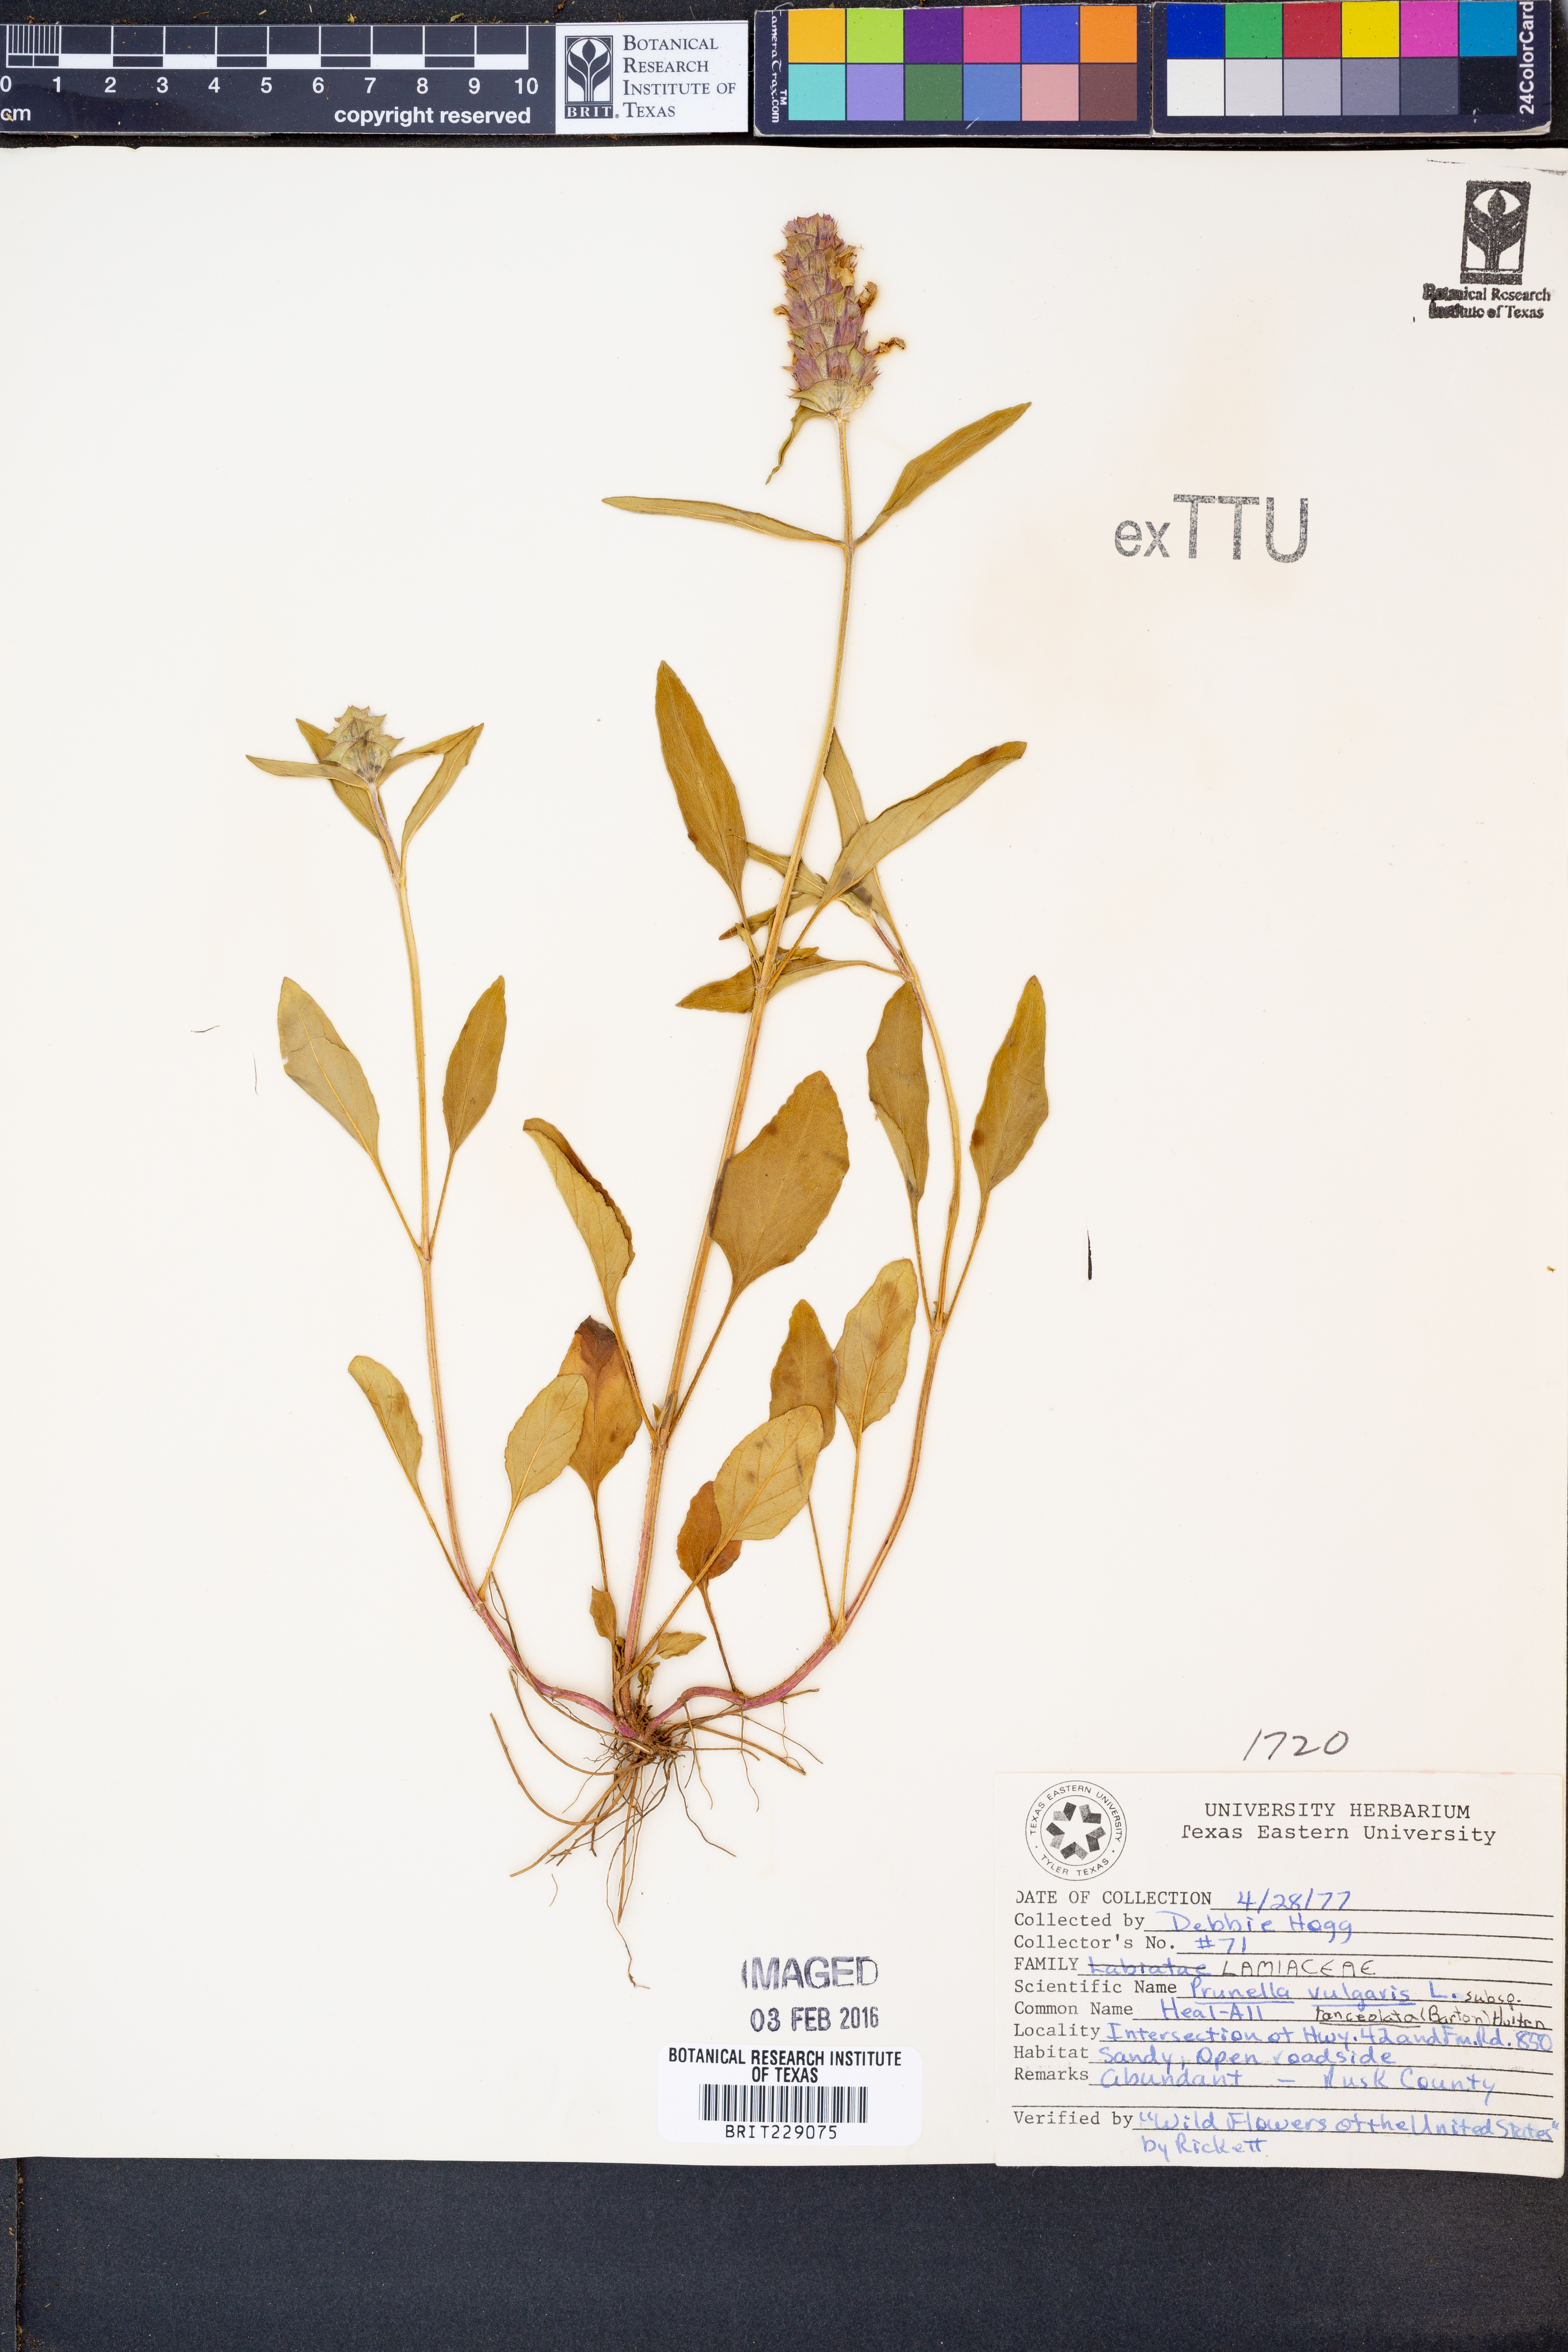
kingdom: Plantae
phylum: Tracheophyta
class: Magnoliopsida
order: Lamiales
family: Lamiaceae
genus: Prunella
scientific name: Prunella vulgaris
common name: Heal-all
